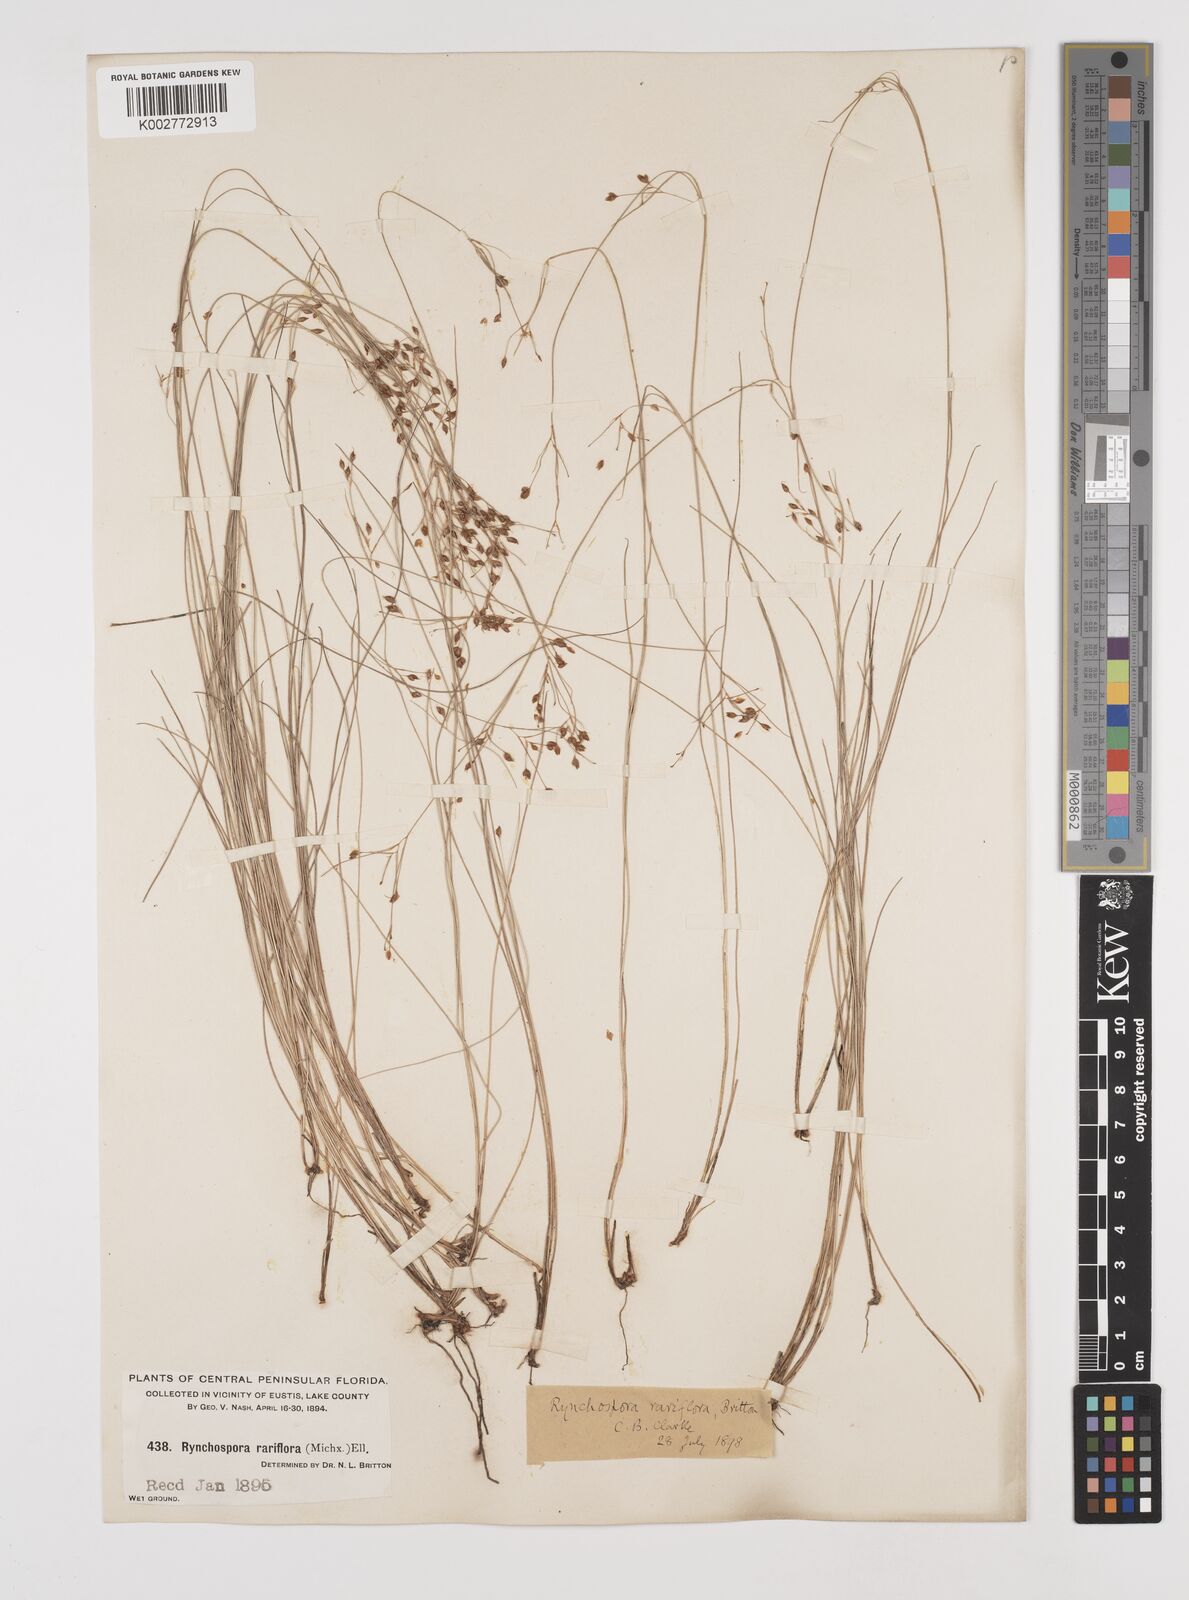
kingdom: Plantae
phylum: Tracheophyta
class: Liliopsida
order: Poales
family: Cyperaceae
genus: Rhynchospora
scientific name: Rhynchospora rariflora
